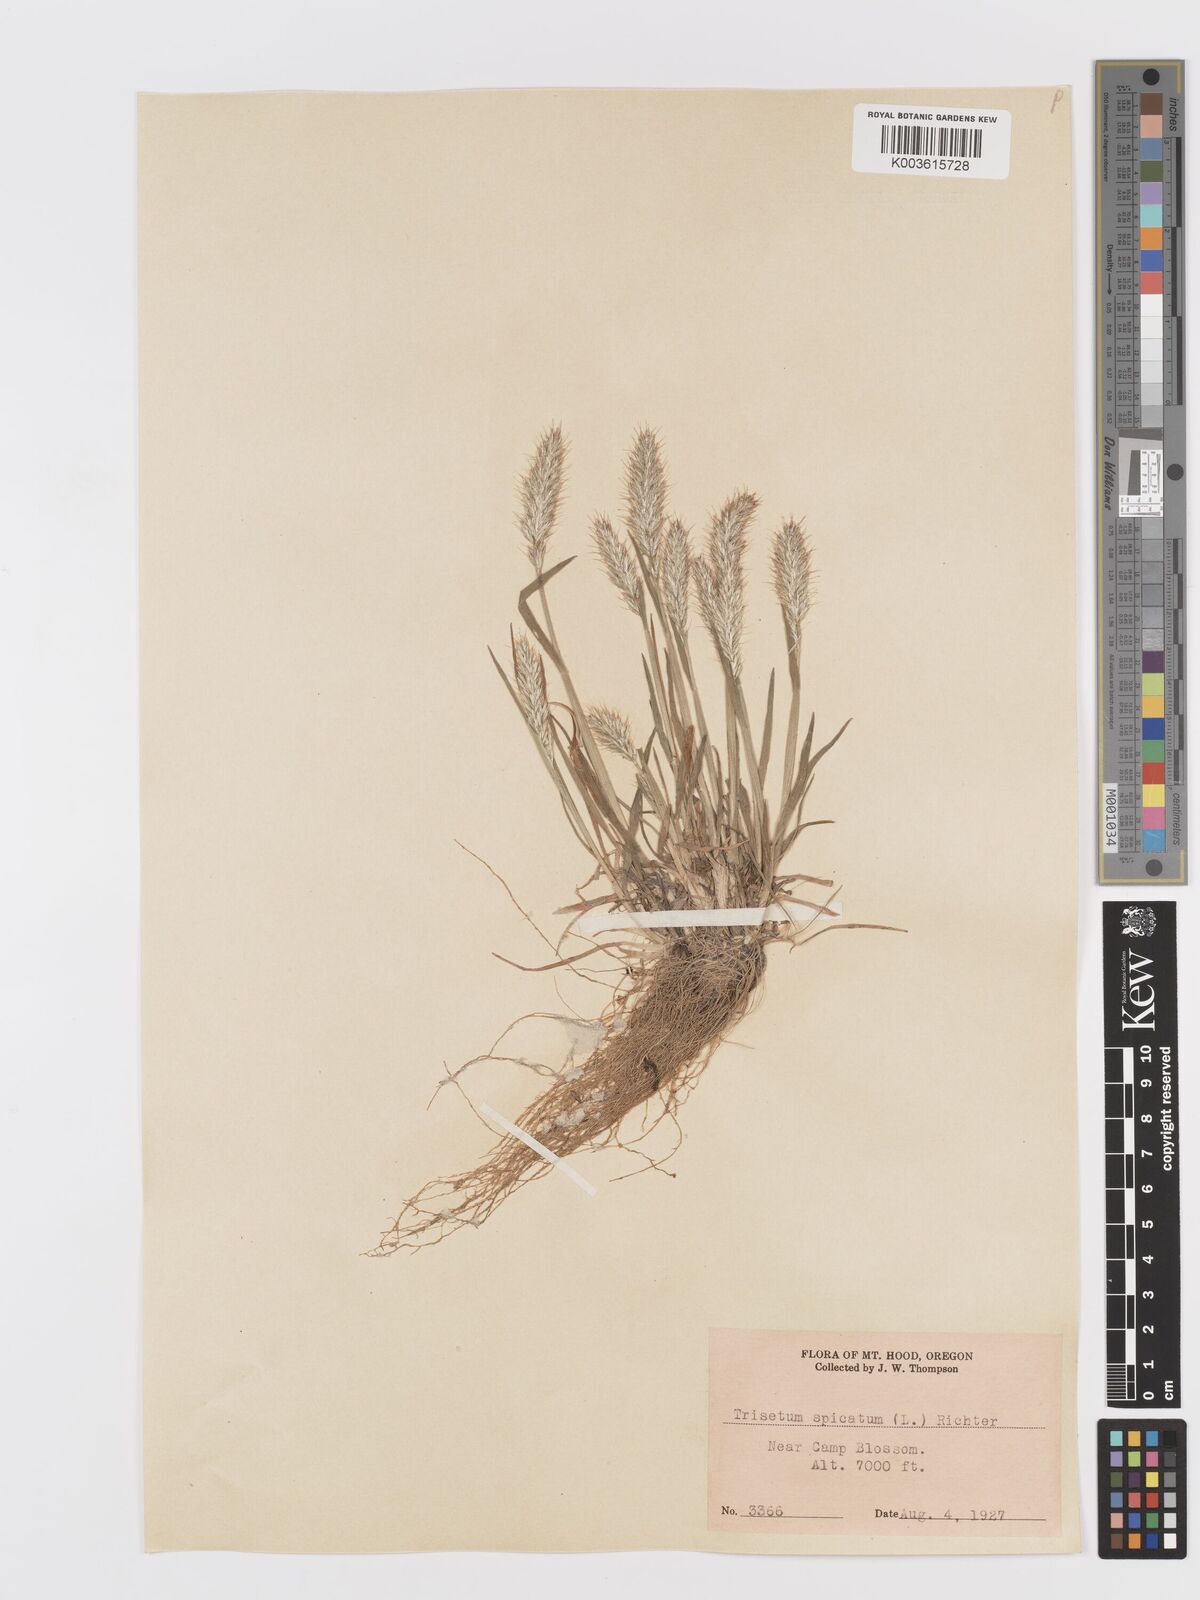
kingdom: Plantae
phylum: Tracheophyta
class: Liliopsida
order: Poales
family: Poaceae
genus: Koeleria
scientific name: Koeleria spicata
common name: Mountain trisetum
